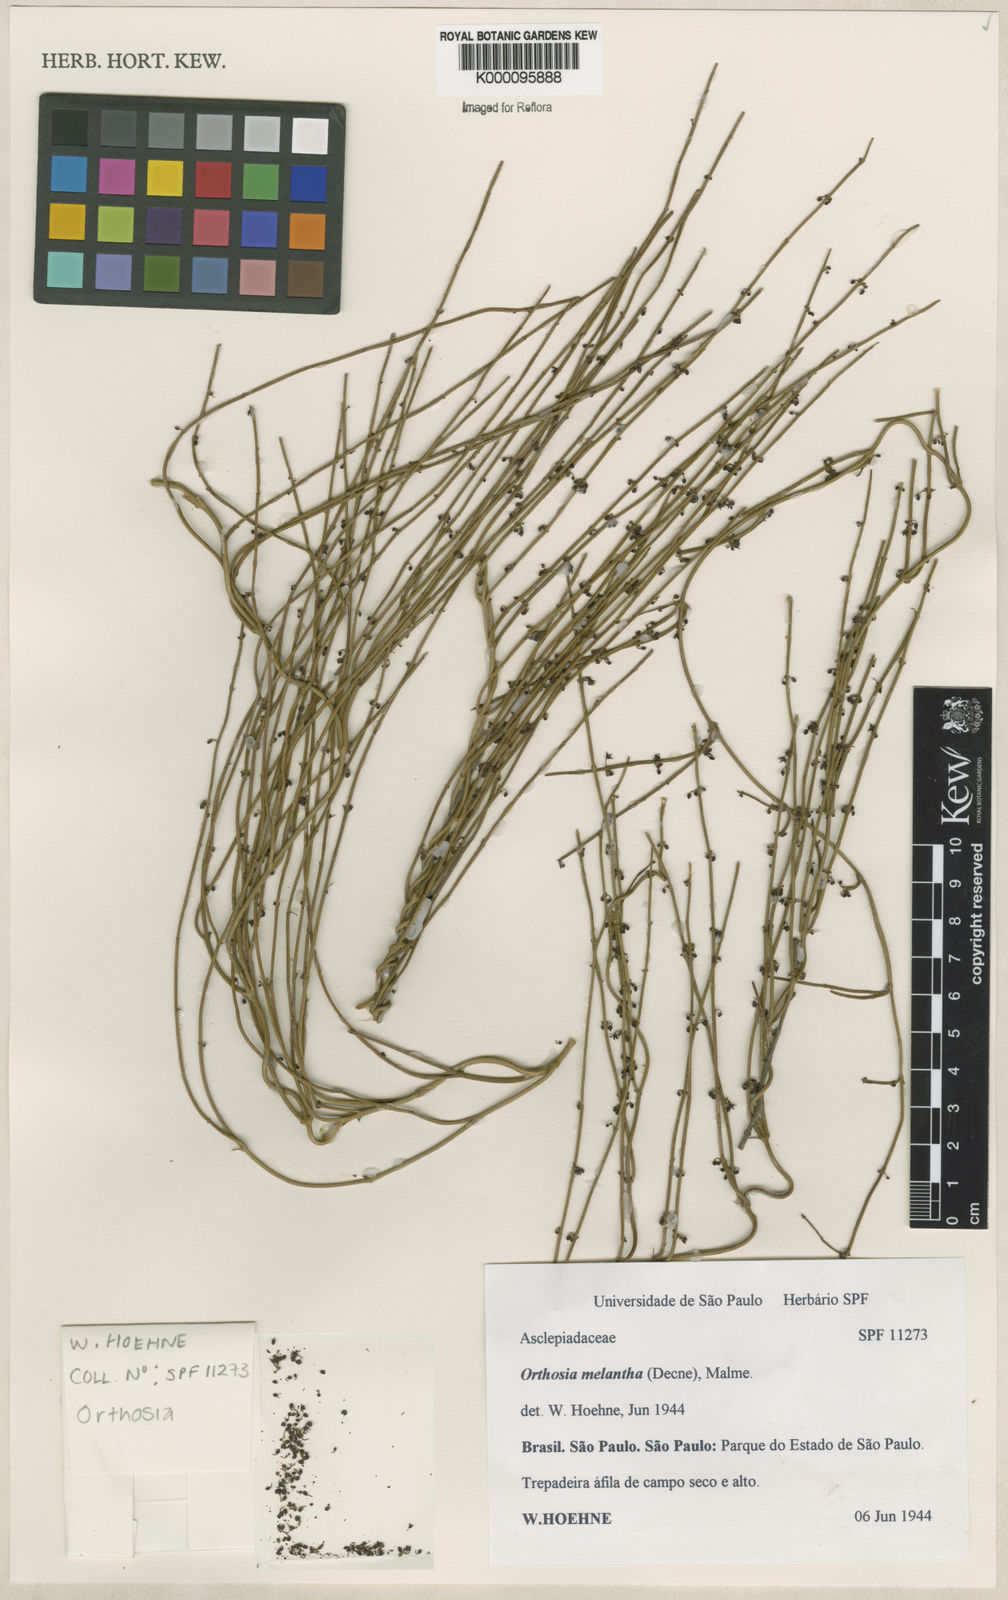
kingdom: Plantae
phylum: Tracheophyta
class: Magnoliopsida
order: Gentianales
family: Apocynaceae
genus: Orthosia
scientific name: Orthosia scoparia
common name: Leafless swallow-wort
